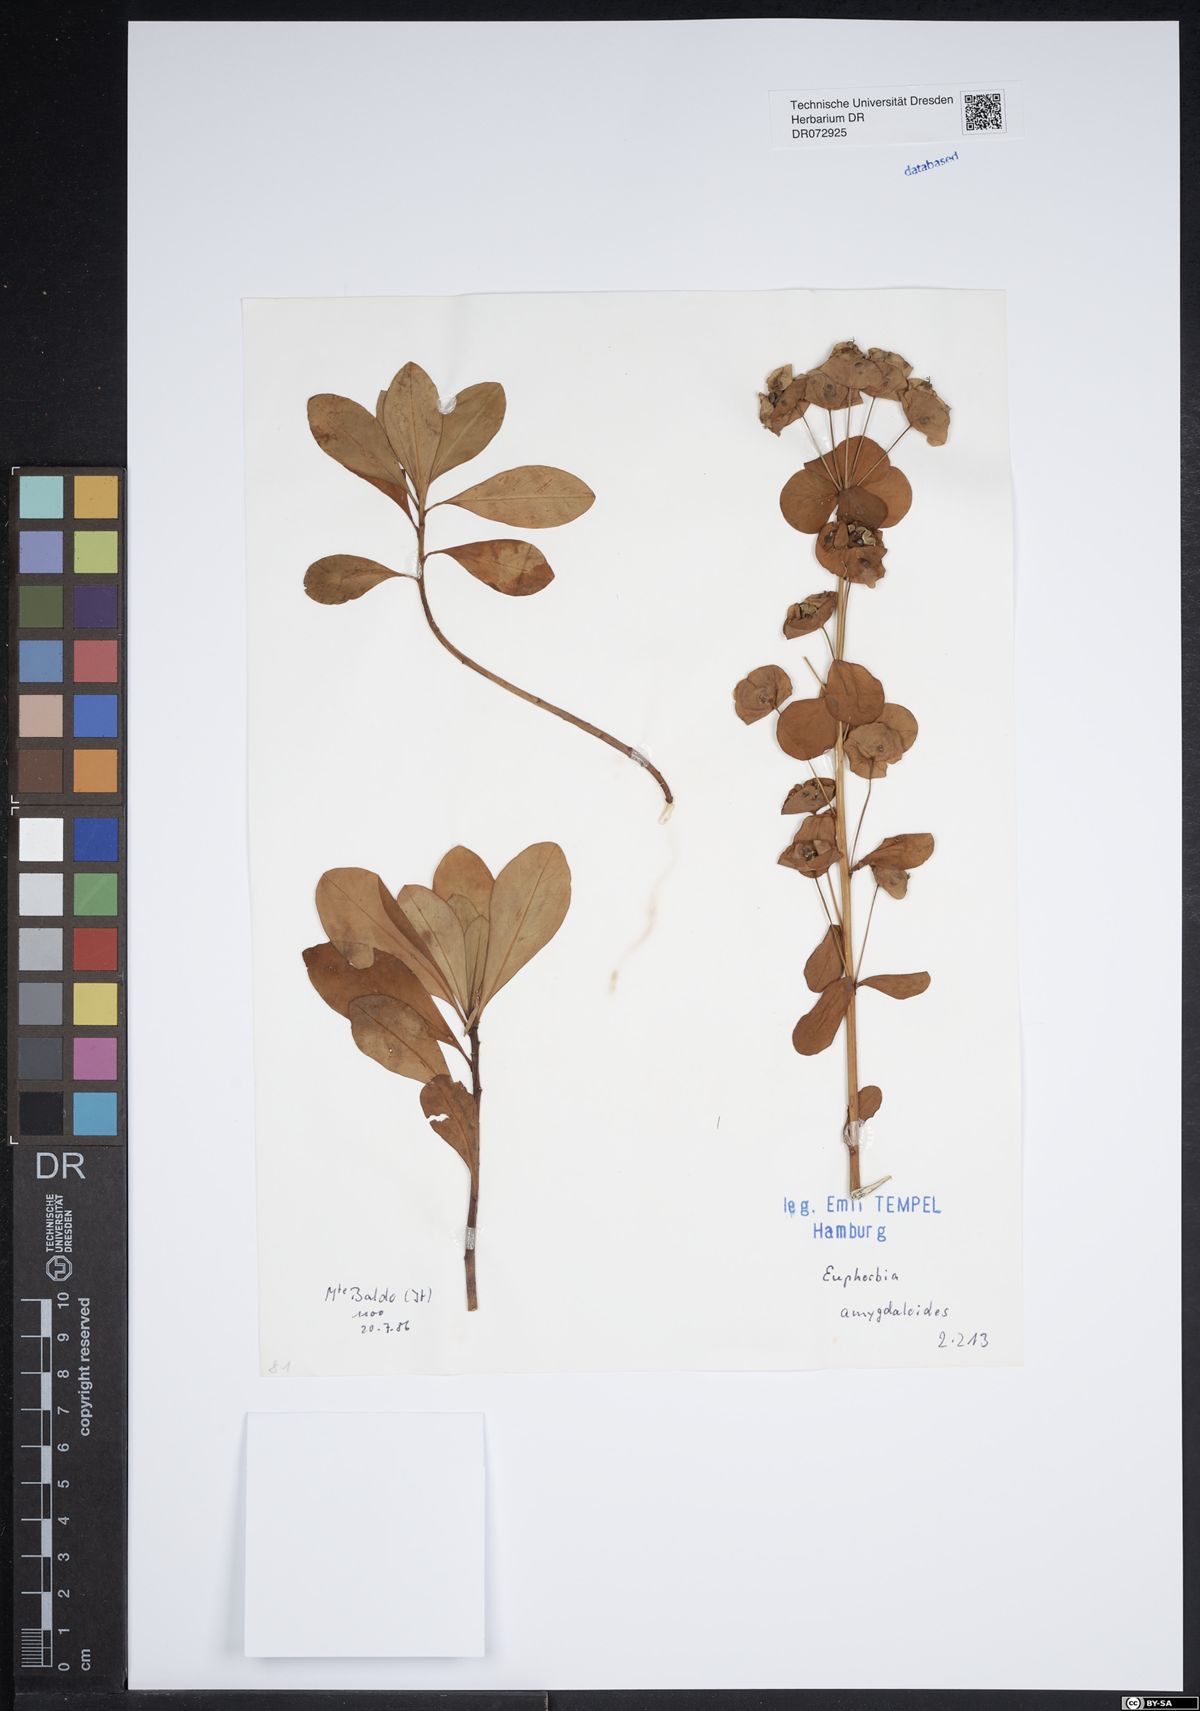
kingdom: Plantae
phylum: Tracheophyta
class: Magnoliopsida
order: Malpighiales
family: Euphorbiaceae
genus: Euphorbia
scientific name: Euphorbia amygdaloides
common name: Wood spurge
